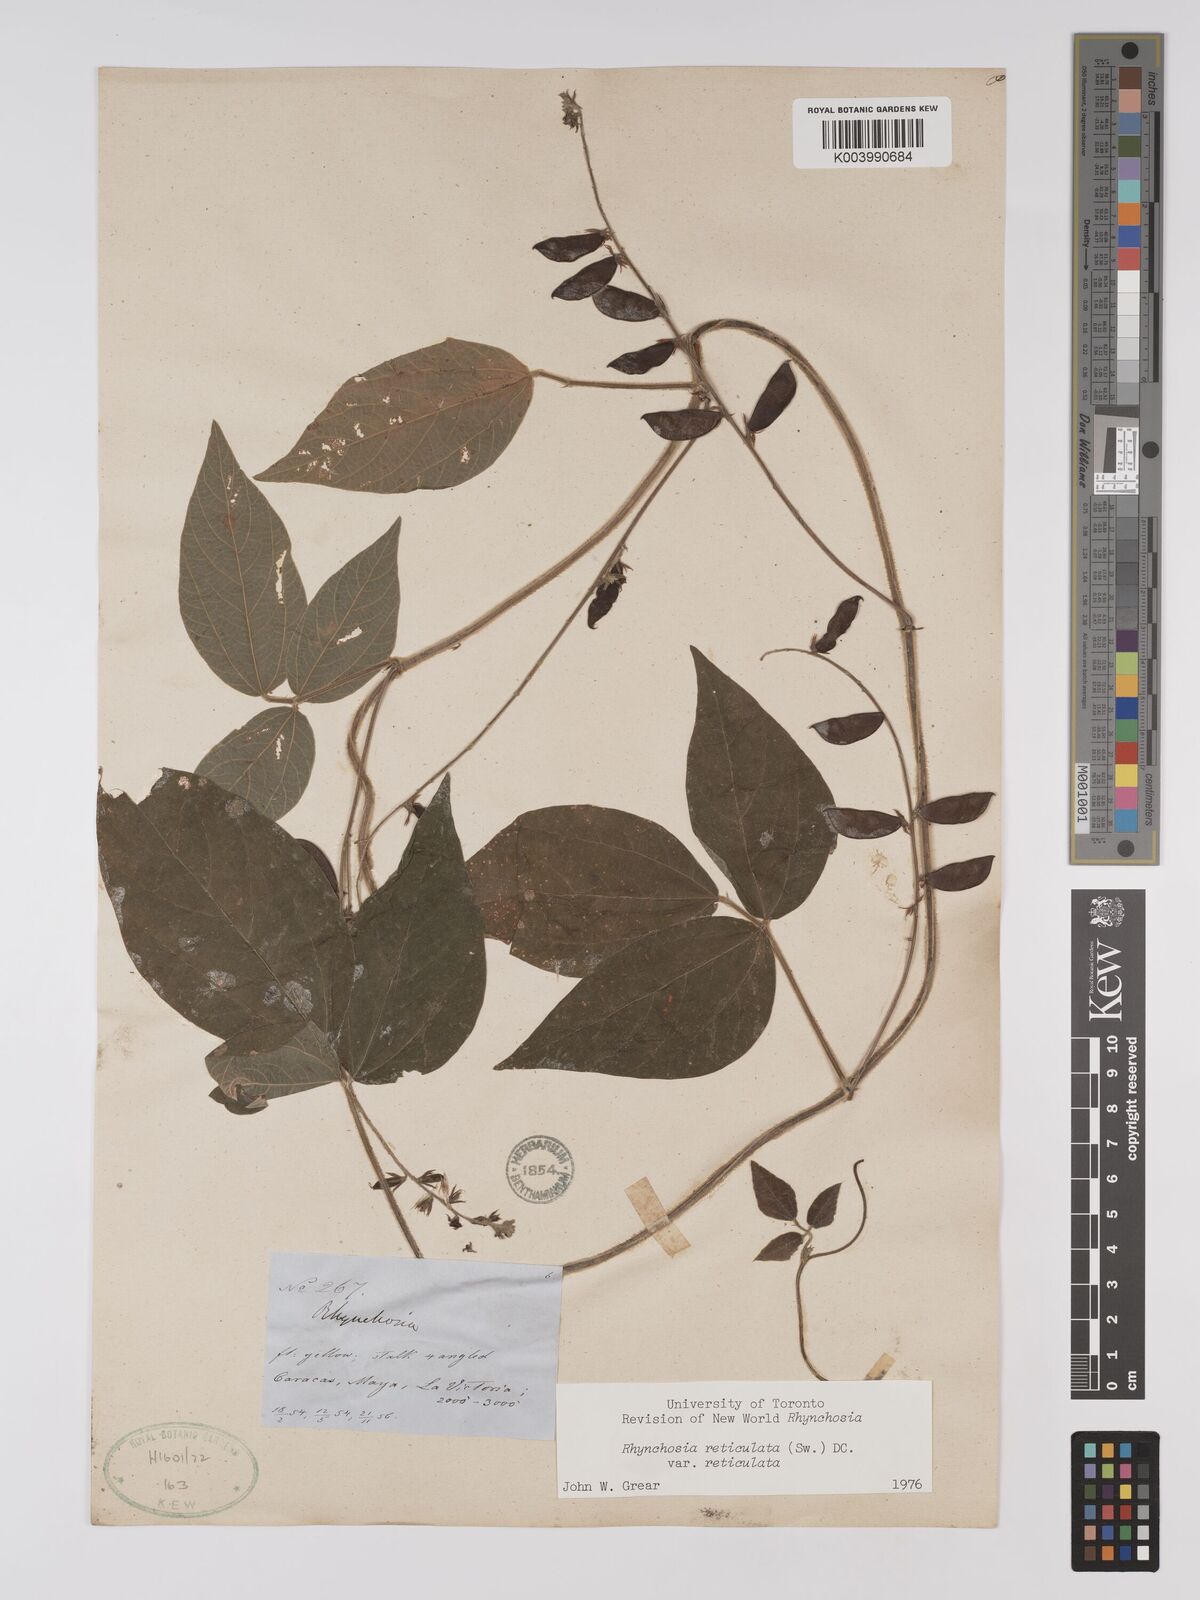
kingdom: Plantae
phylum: Tracheophyta
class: Magnoliopsida
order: Fabales
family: Fabaceae
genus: Rhynchosia
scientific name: Rhynchosia reticulata
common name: Pea withe
